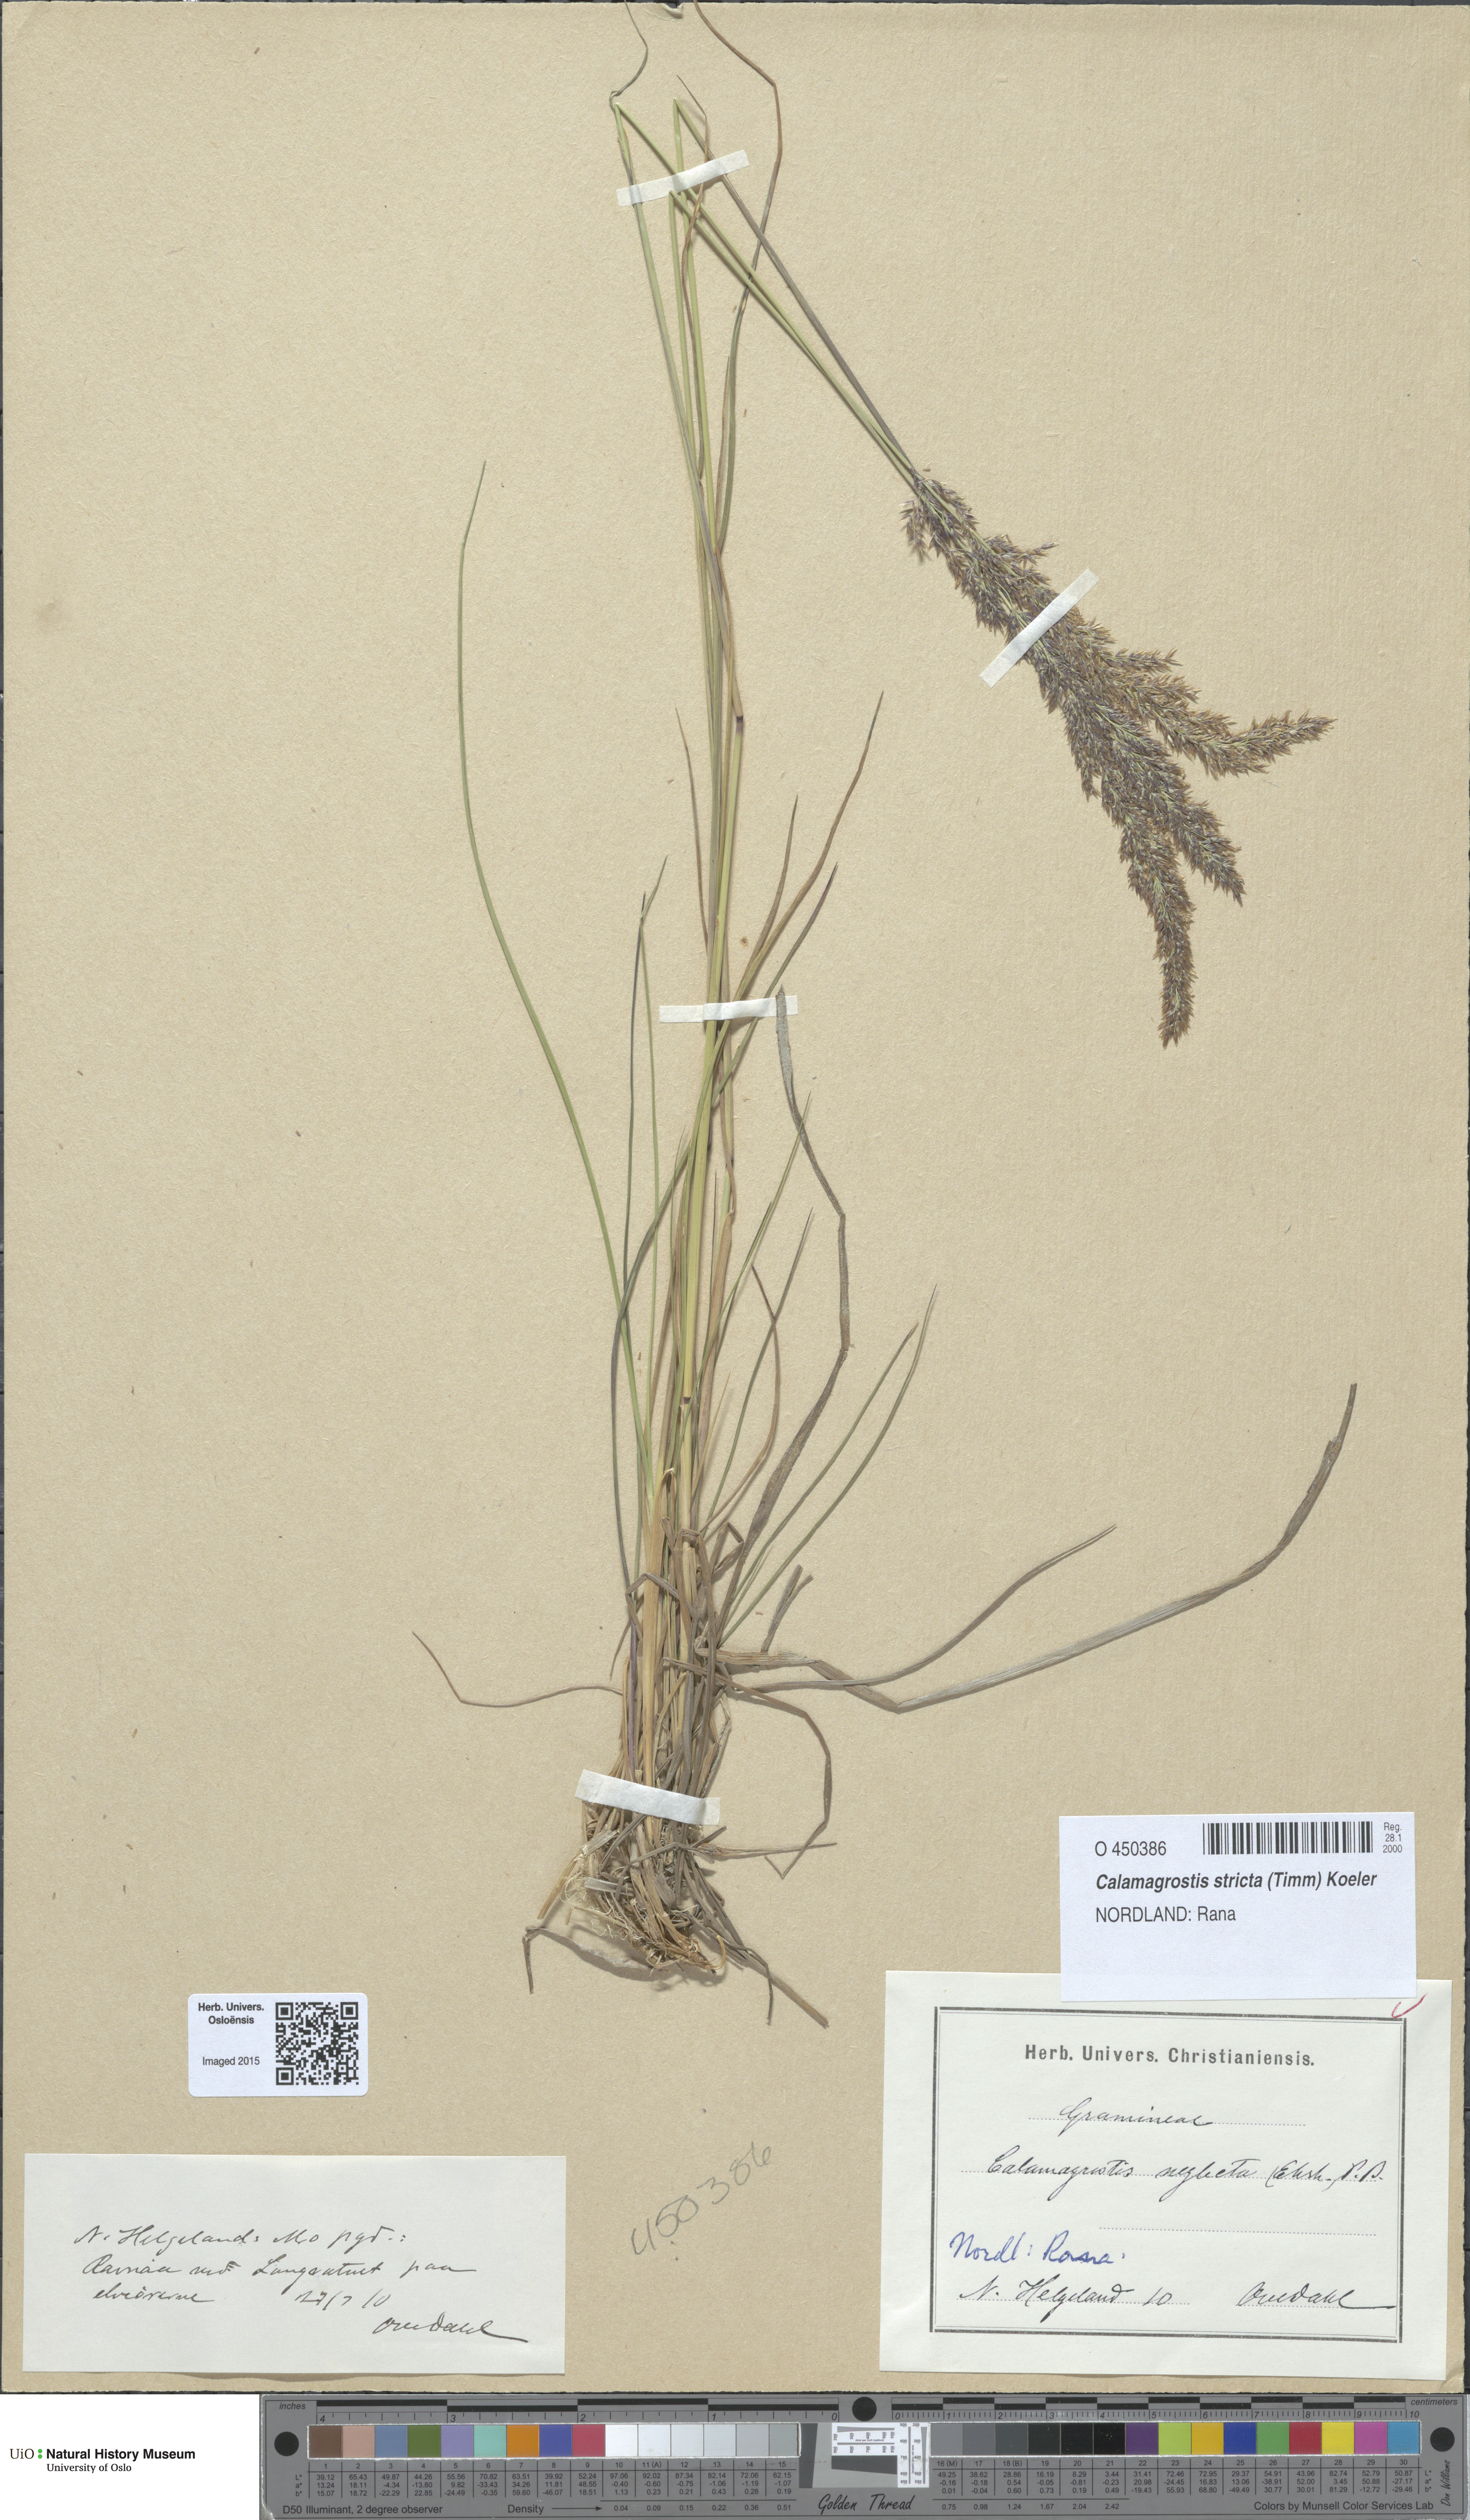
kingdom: Plantae
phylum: Tracheophyta
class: Liliopsida
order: Poales
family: Poaceae
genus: Achnatherum
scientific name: Achnatherum calamagrostis
